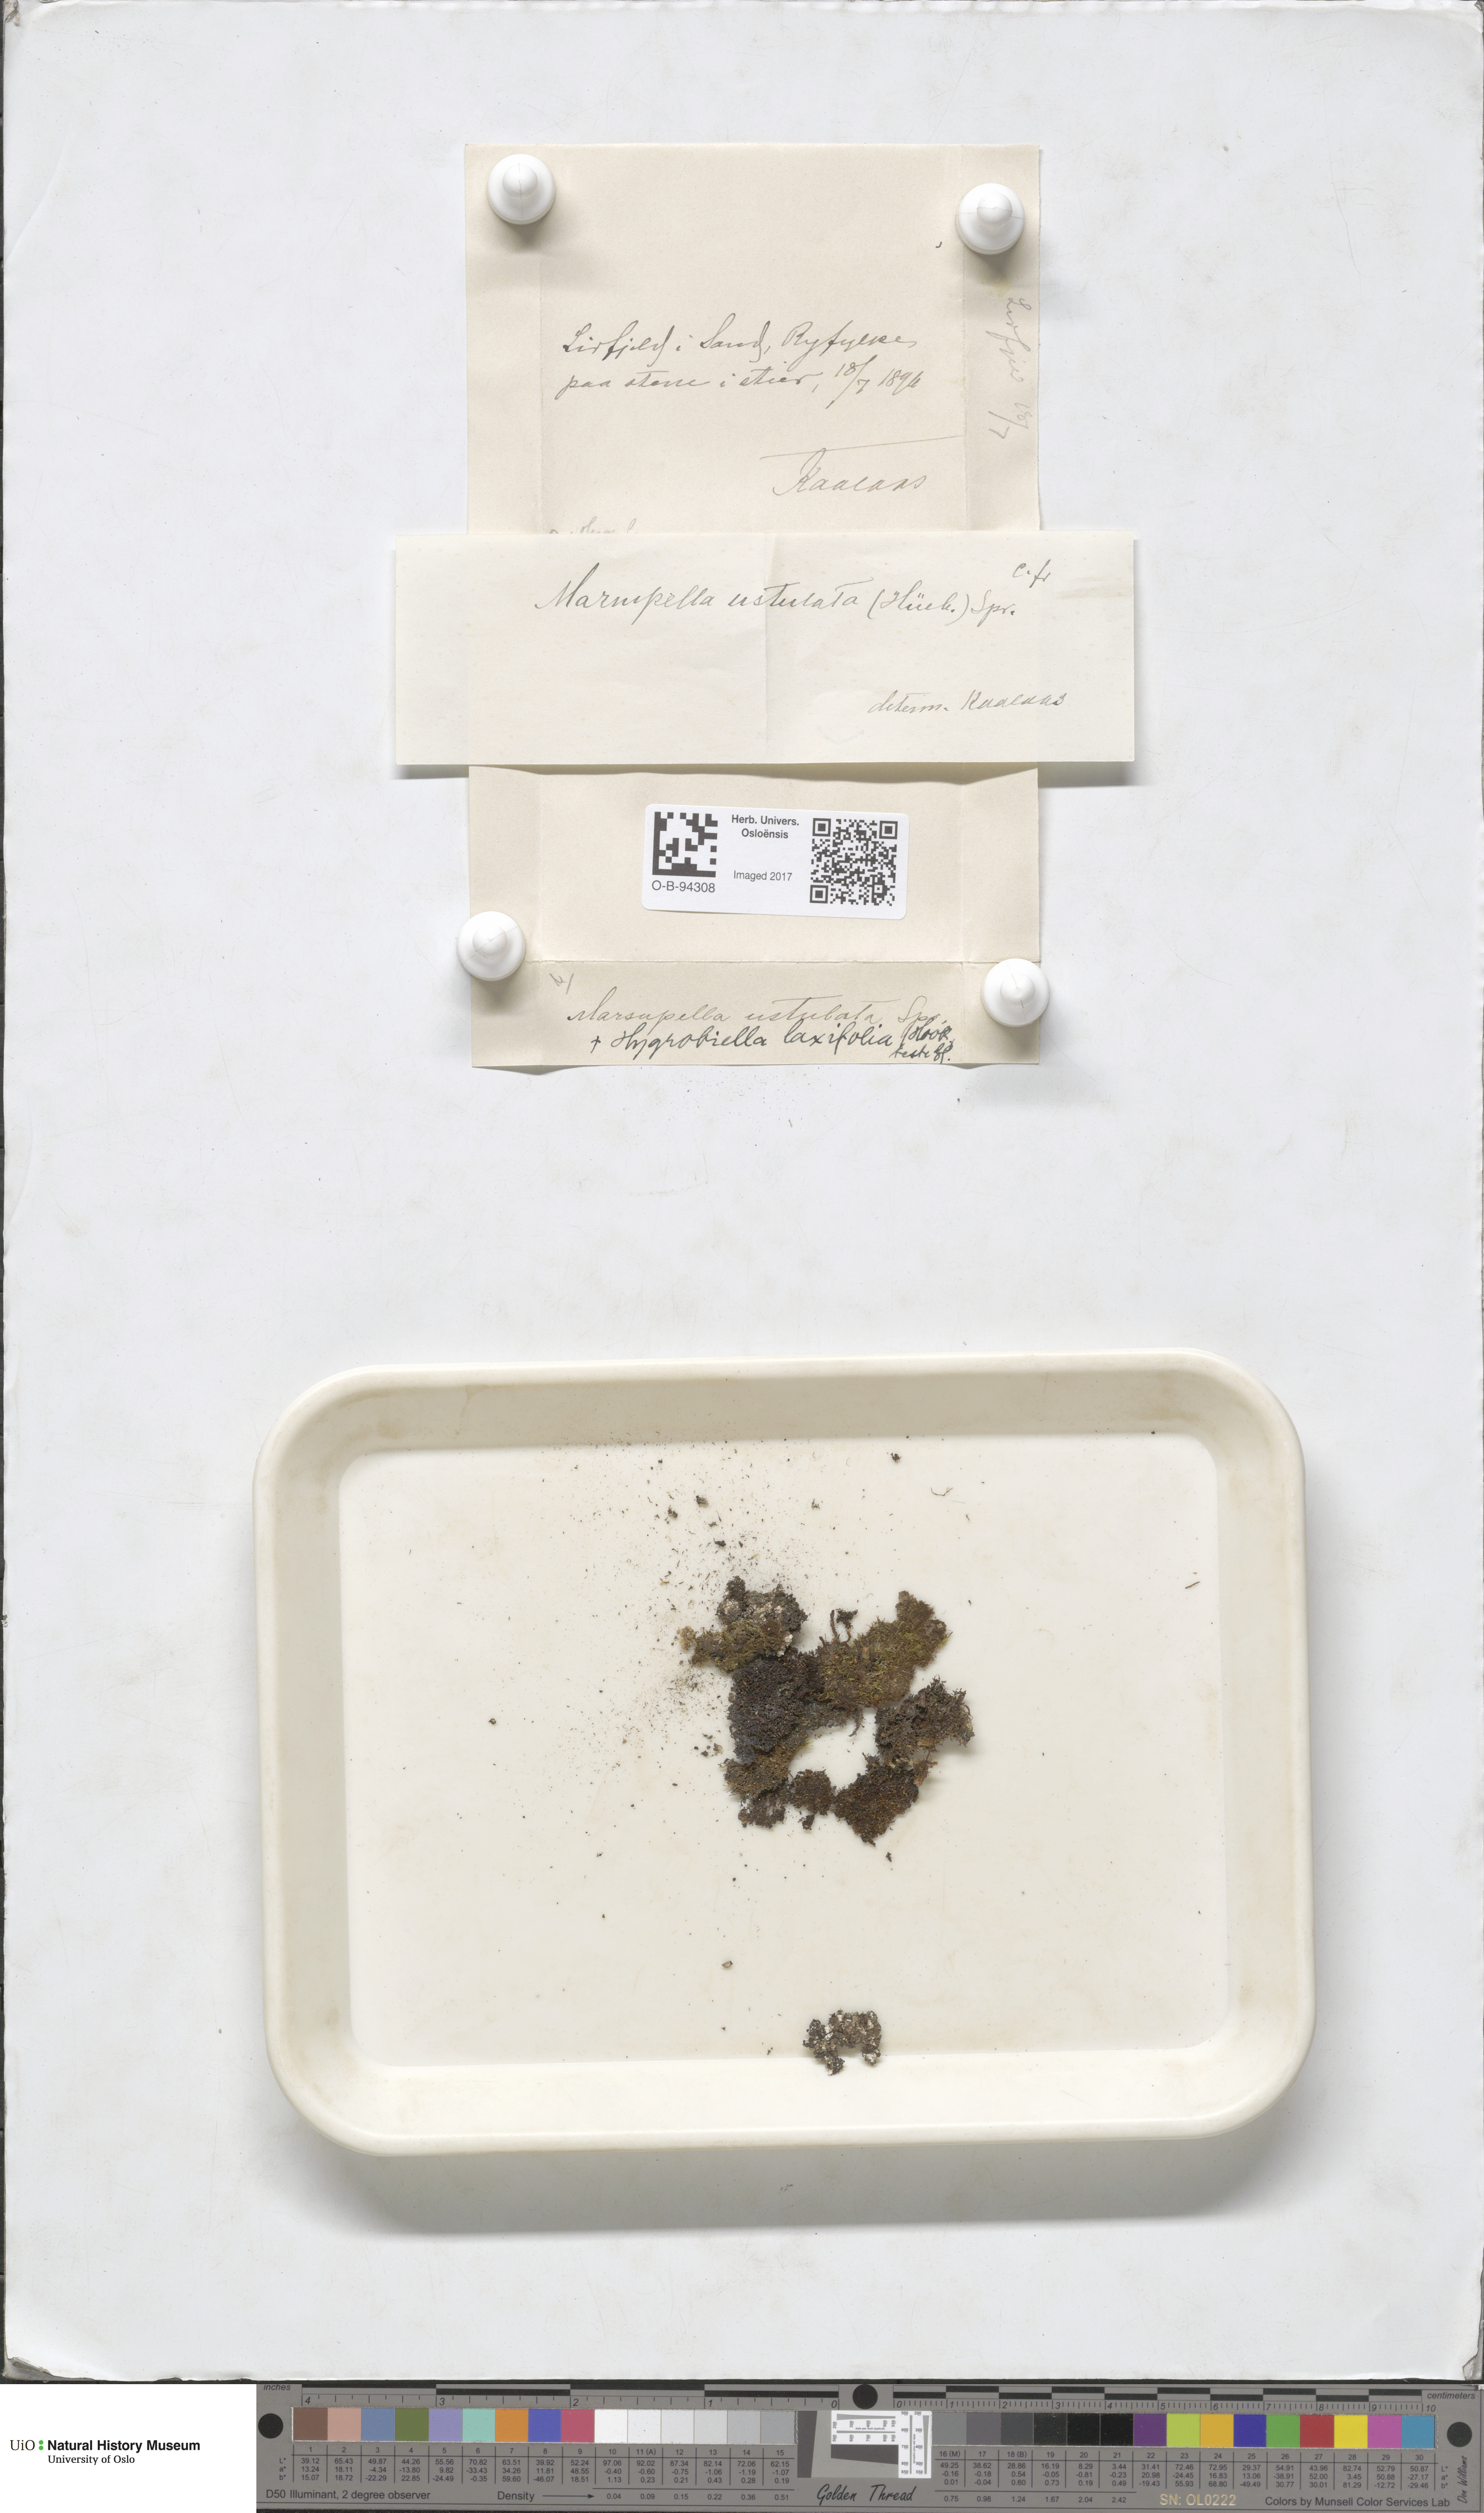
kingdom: Plantae
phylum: Marchantiophyta
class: Jungermanniopsida
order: Jungermanniales
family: Gymnomitriaceae
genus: Marsupella
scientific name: Marsupella sprucei
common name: Spruce s rustwort
